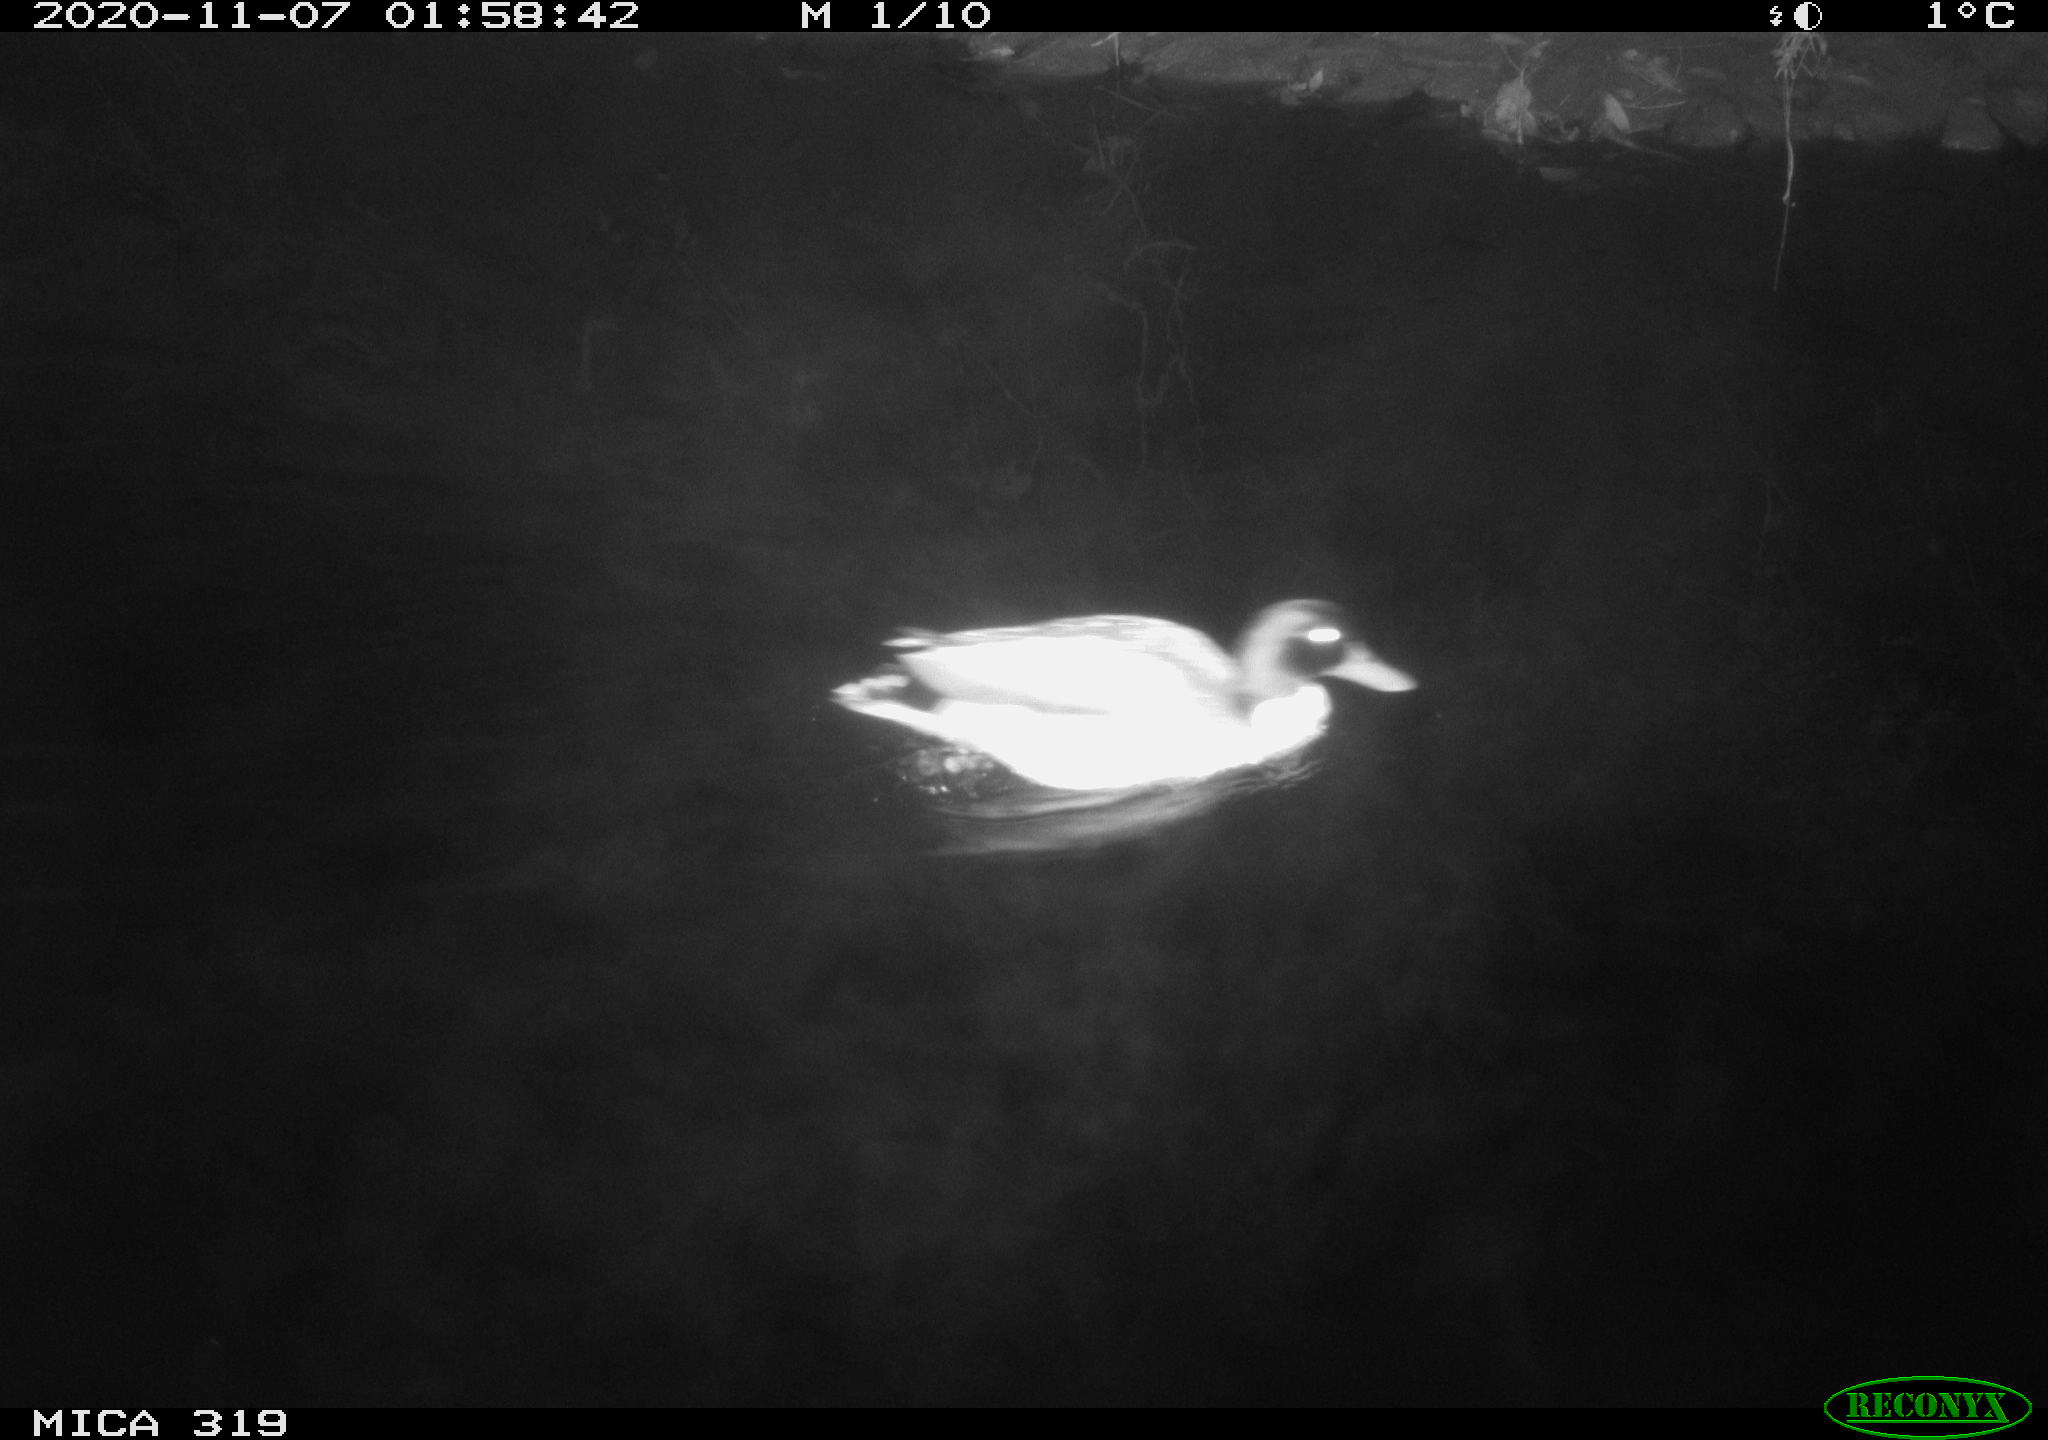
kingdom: Animalia
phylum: Chordata
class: Aves
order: Anseriformes
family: Anatidae
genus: Anas
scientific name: Anas platyrhynchos
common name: Mallard
